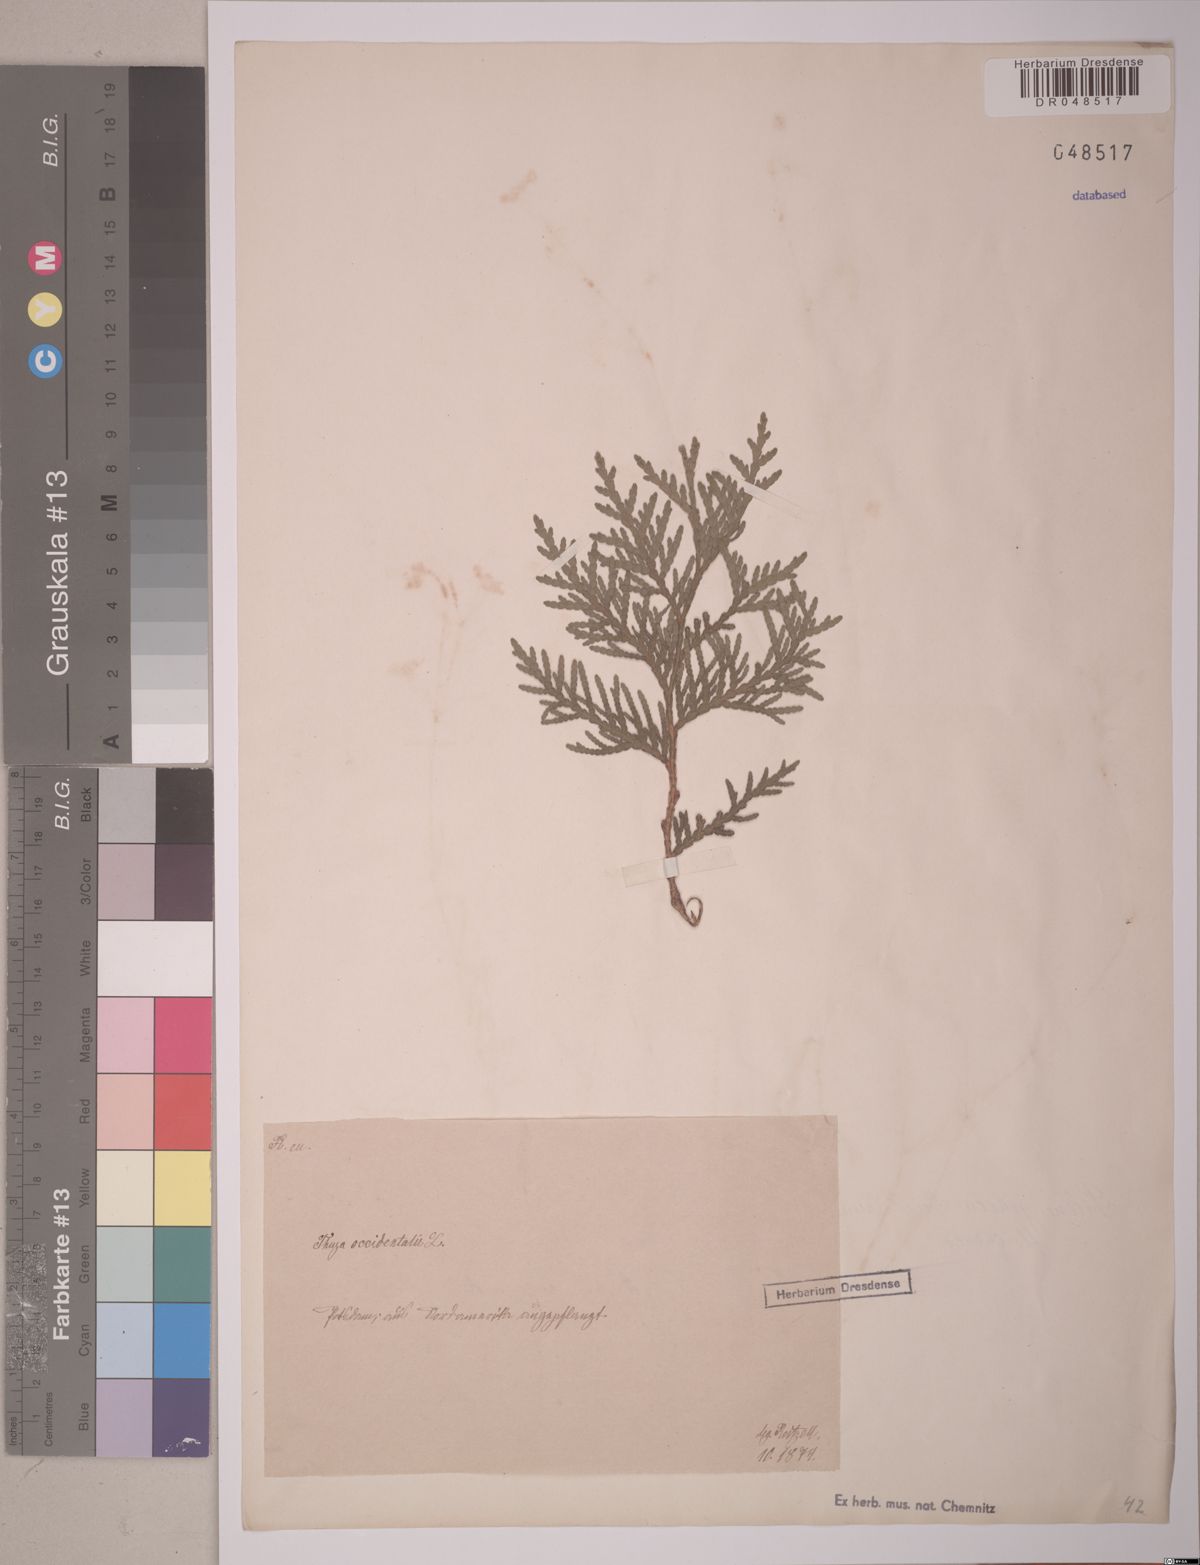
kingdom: Plantae
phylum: Tracheophyta
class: Pinopsida
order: Pinales
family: Cupressaceae
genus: Thuja
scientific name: Thuja occidentalis
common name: Northern white-cedar
